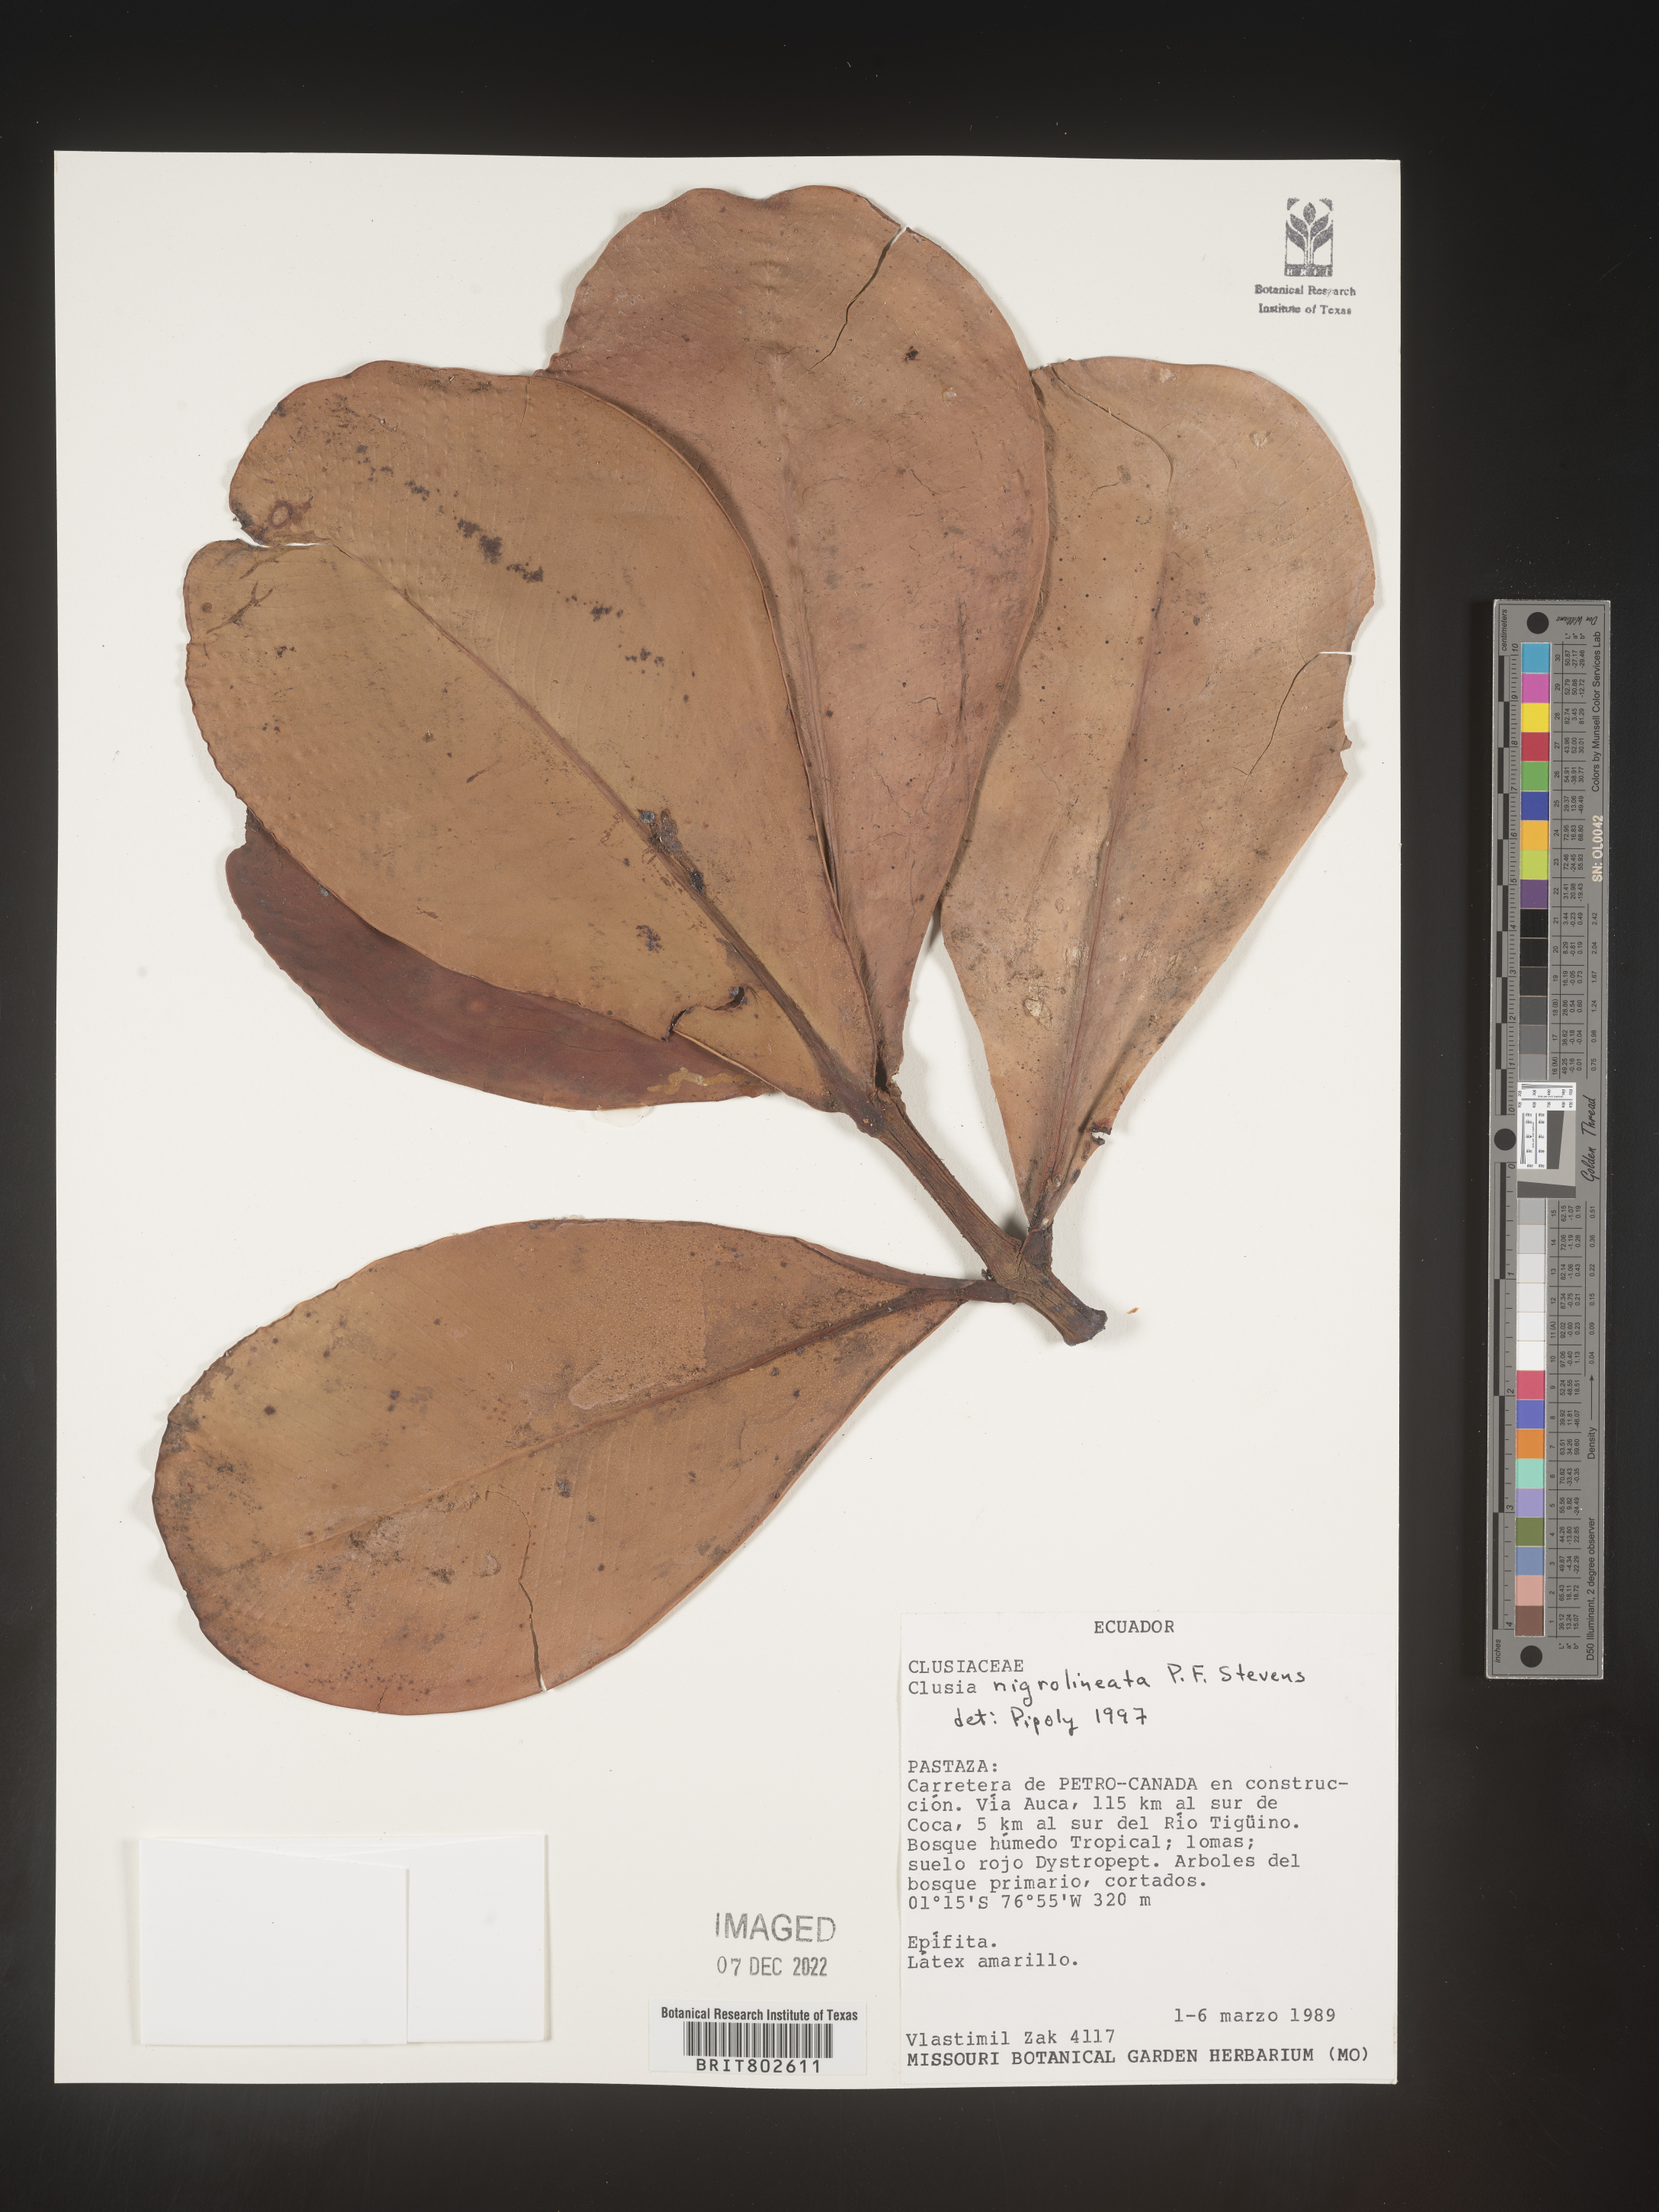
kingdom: Plantae
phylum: Tracheophyta
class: Magnoliopsida
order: Malpighiales
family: Clusiaceae
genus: Clusia
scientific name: Clusia nigrolineata
